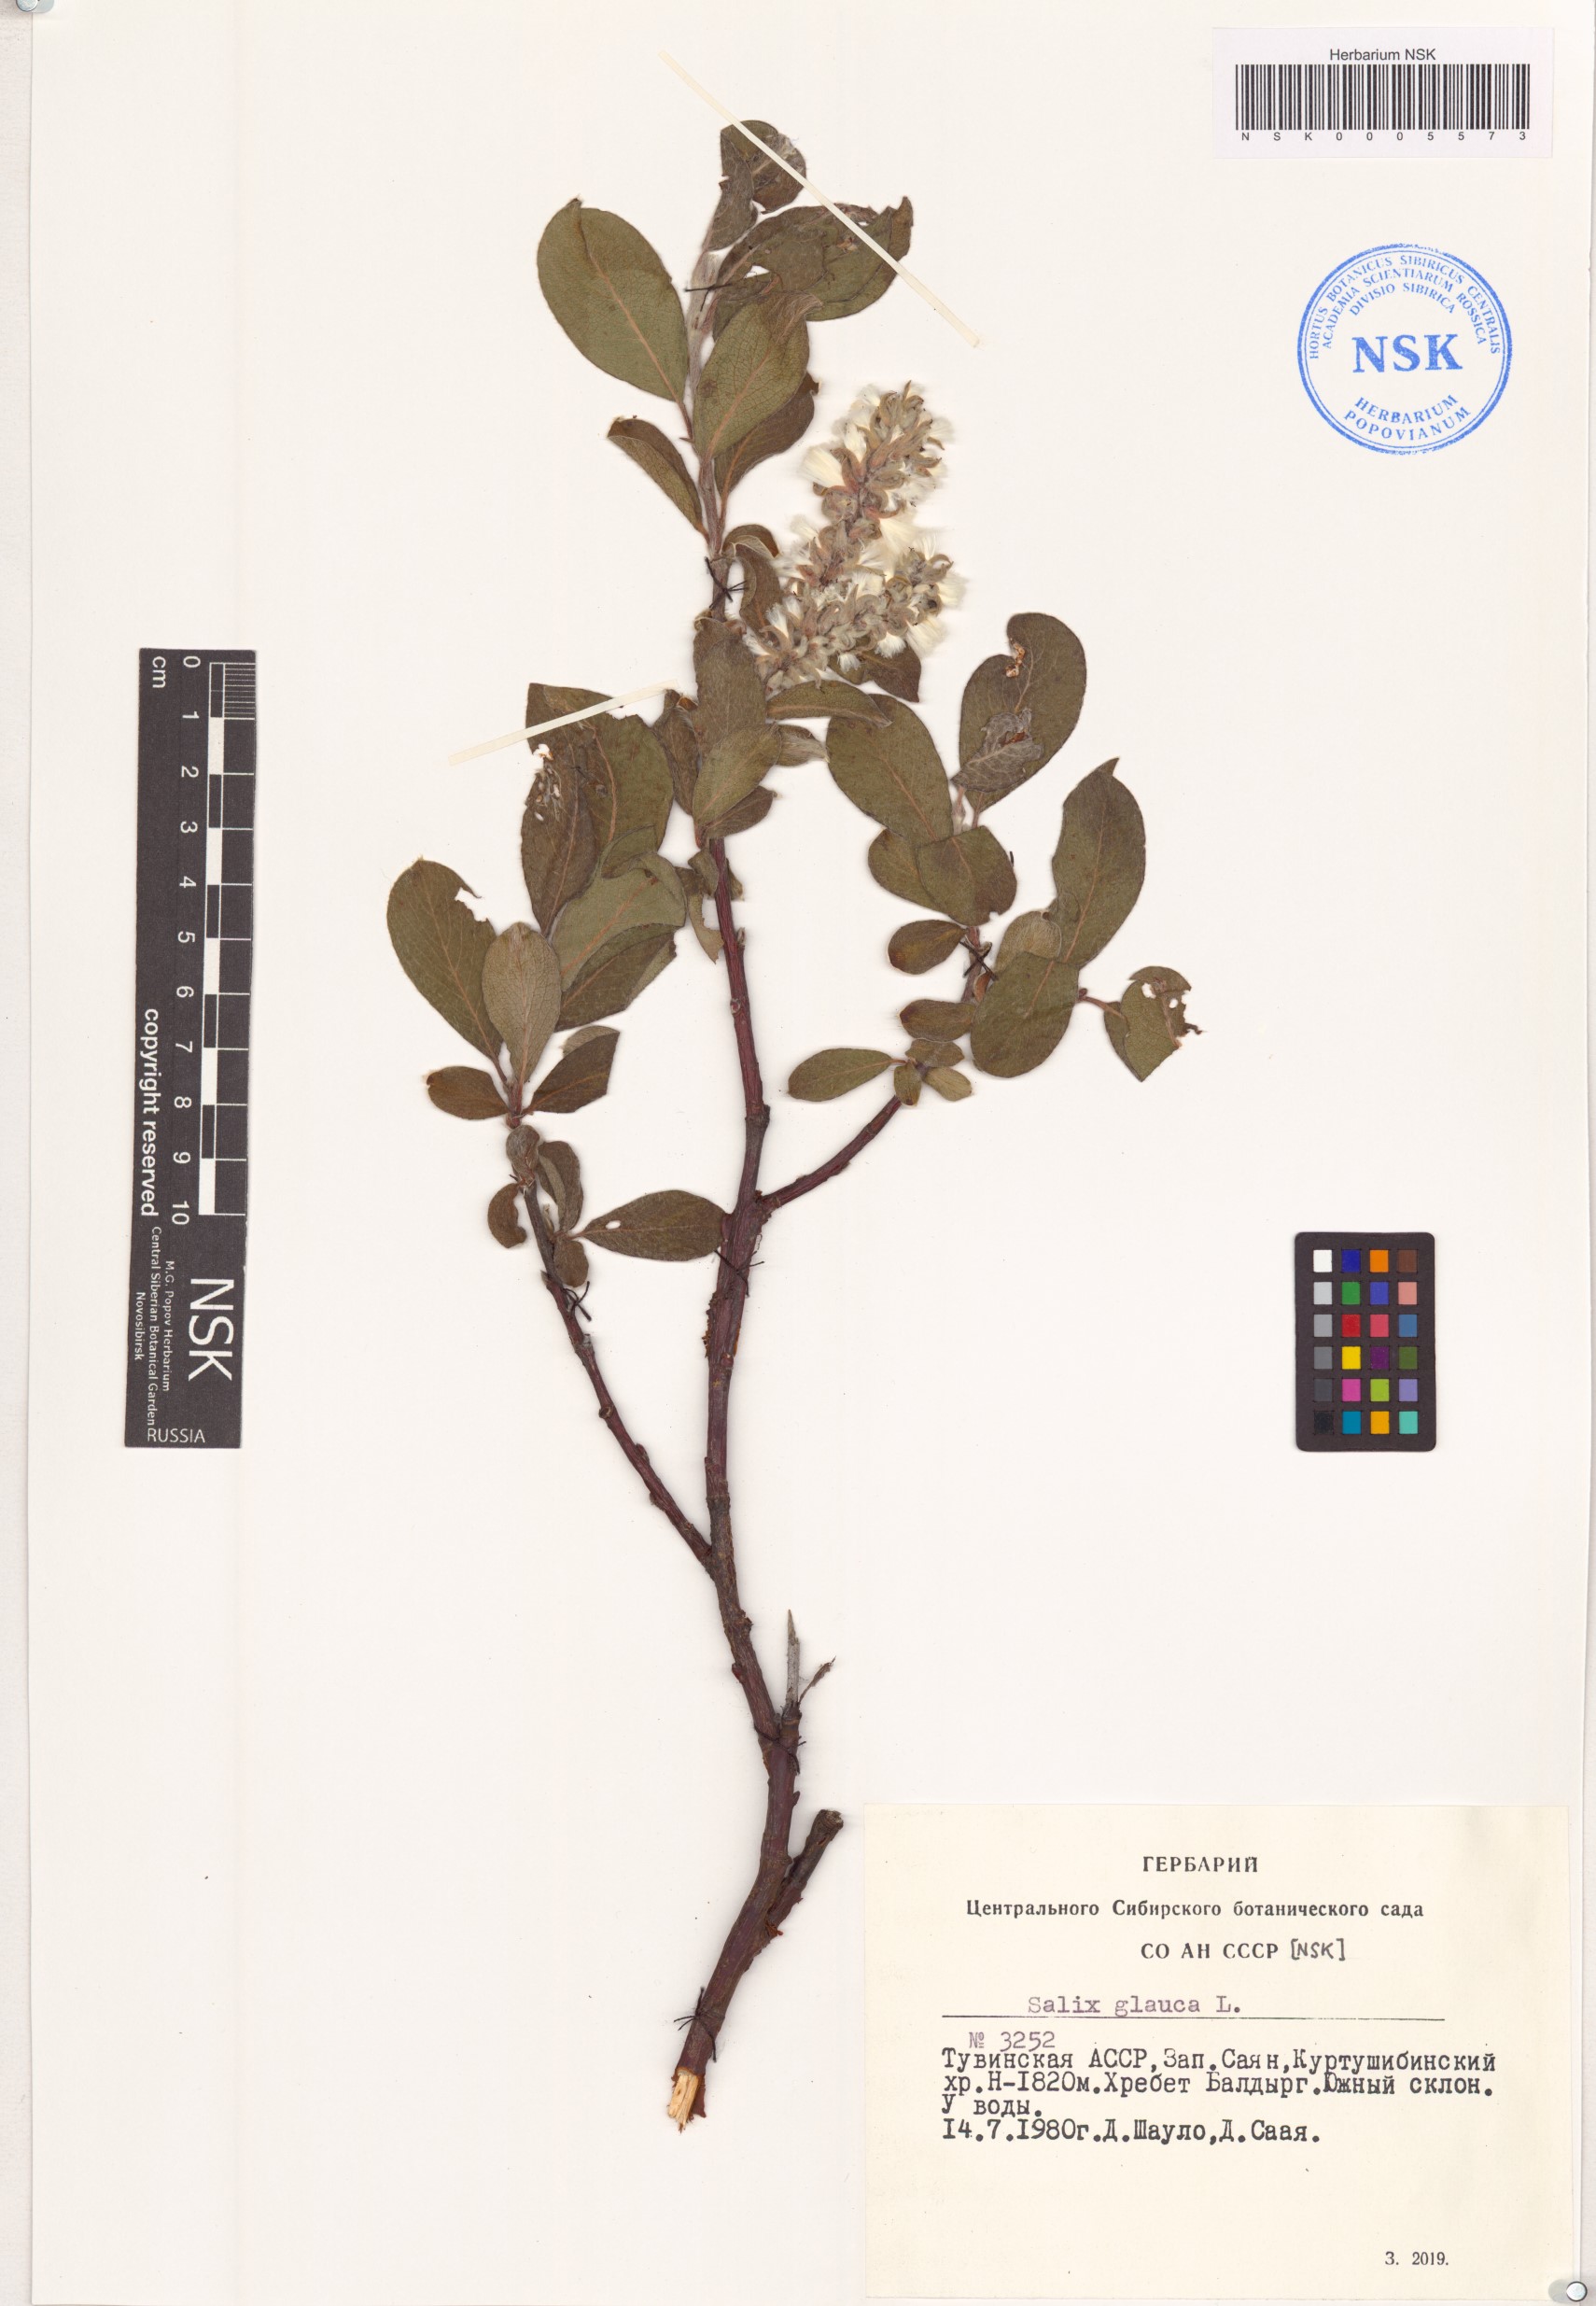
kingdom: Plantae
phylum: Tracheophyta
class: Magnoliopsida
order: Malpighiales
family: Salicaceae
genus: Salix
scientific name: Salix glauca
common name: Glaucous willow
